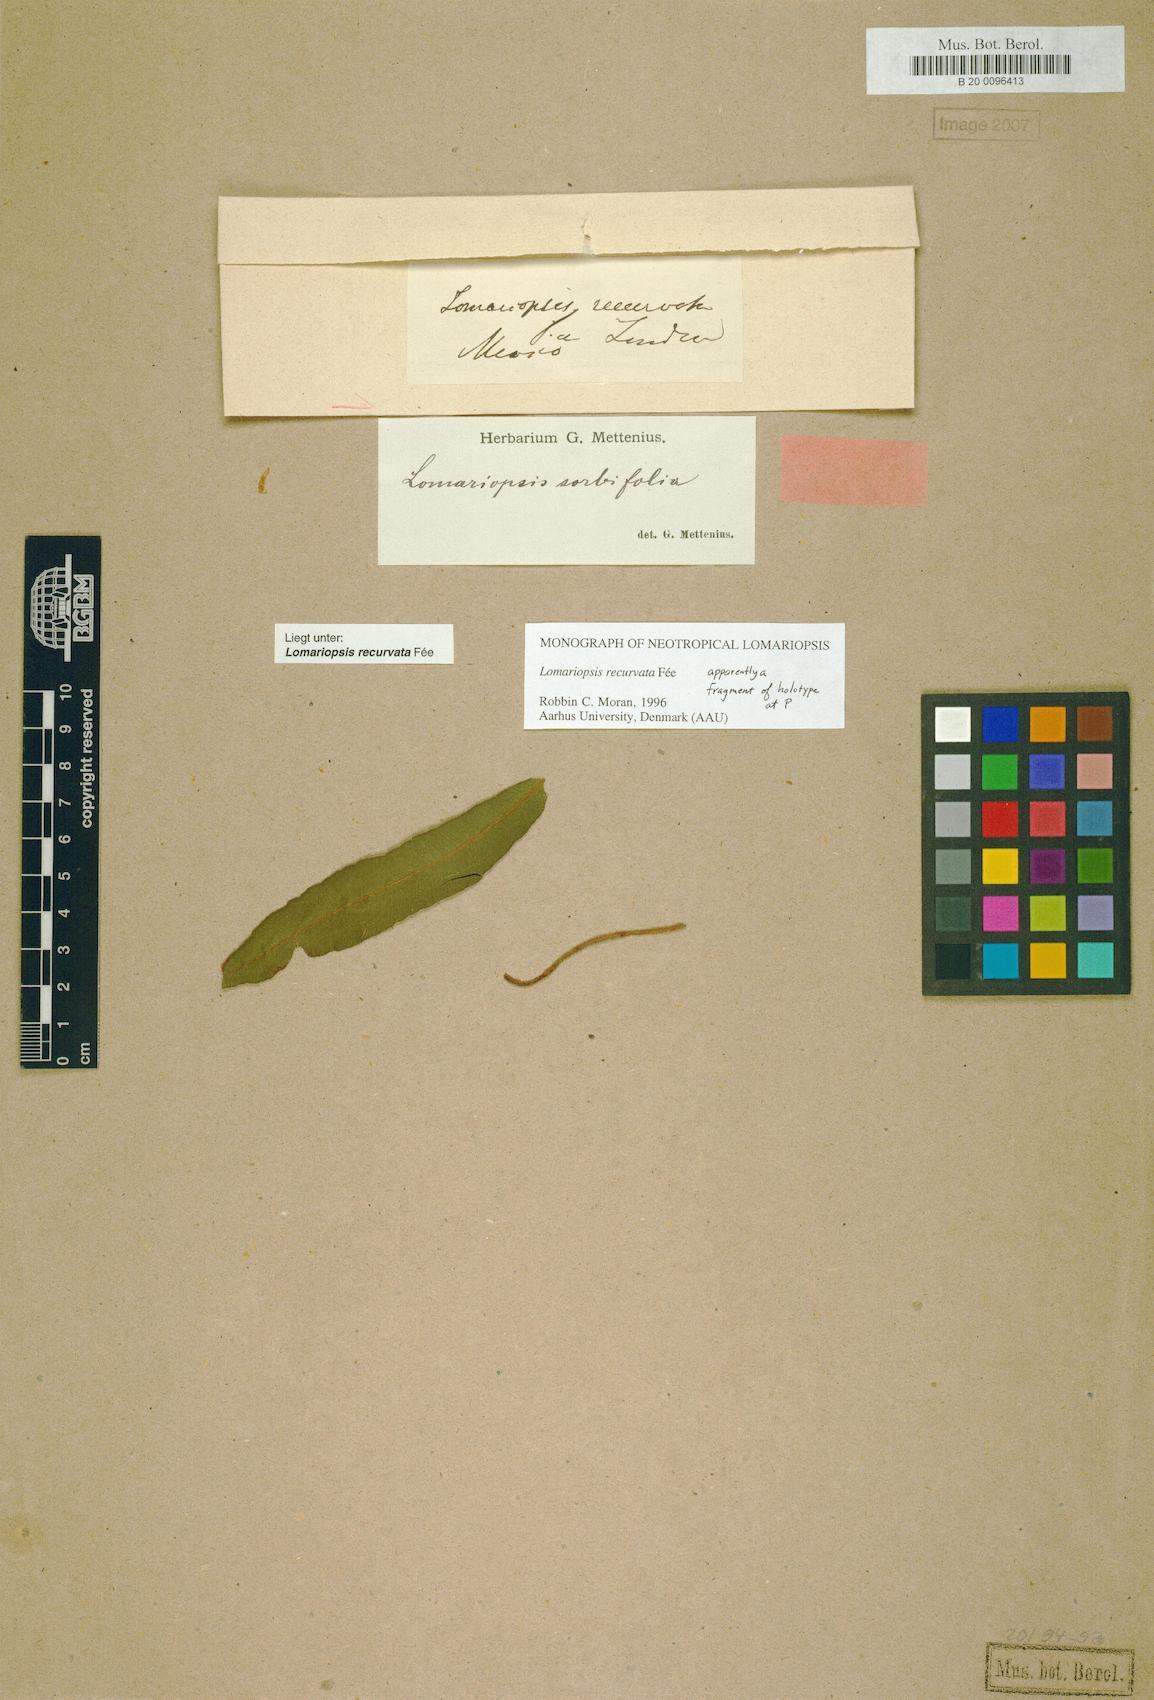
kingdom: Plantae
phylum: Tracheophyta
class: Polypodiopsida
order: Polypodiales
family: Lomariopsidaceae
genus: Lomariopsis
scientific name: Lomariopsis recurvata
